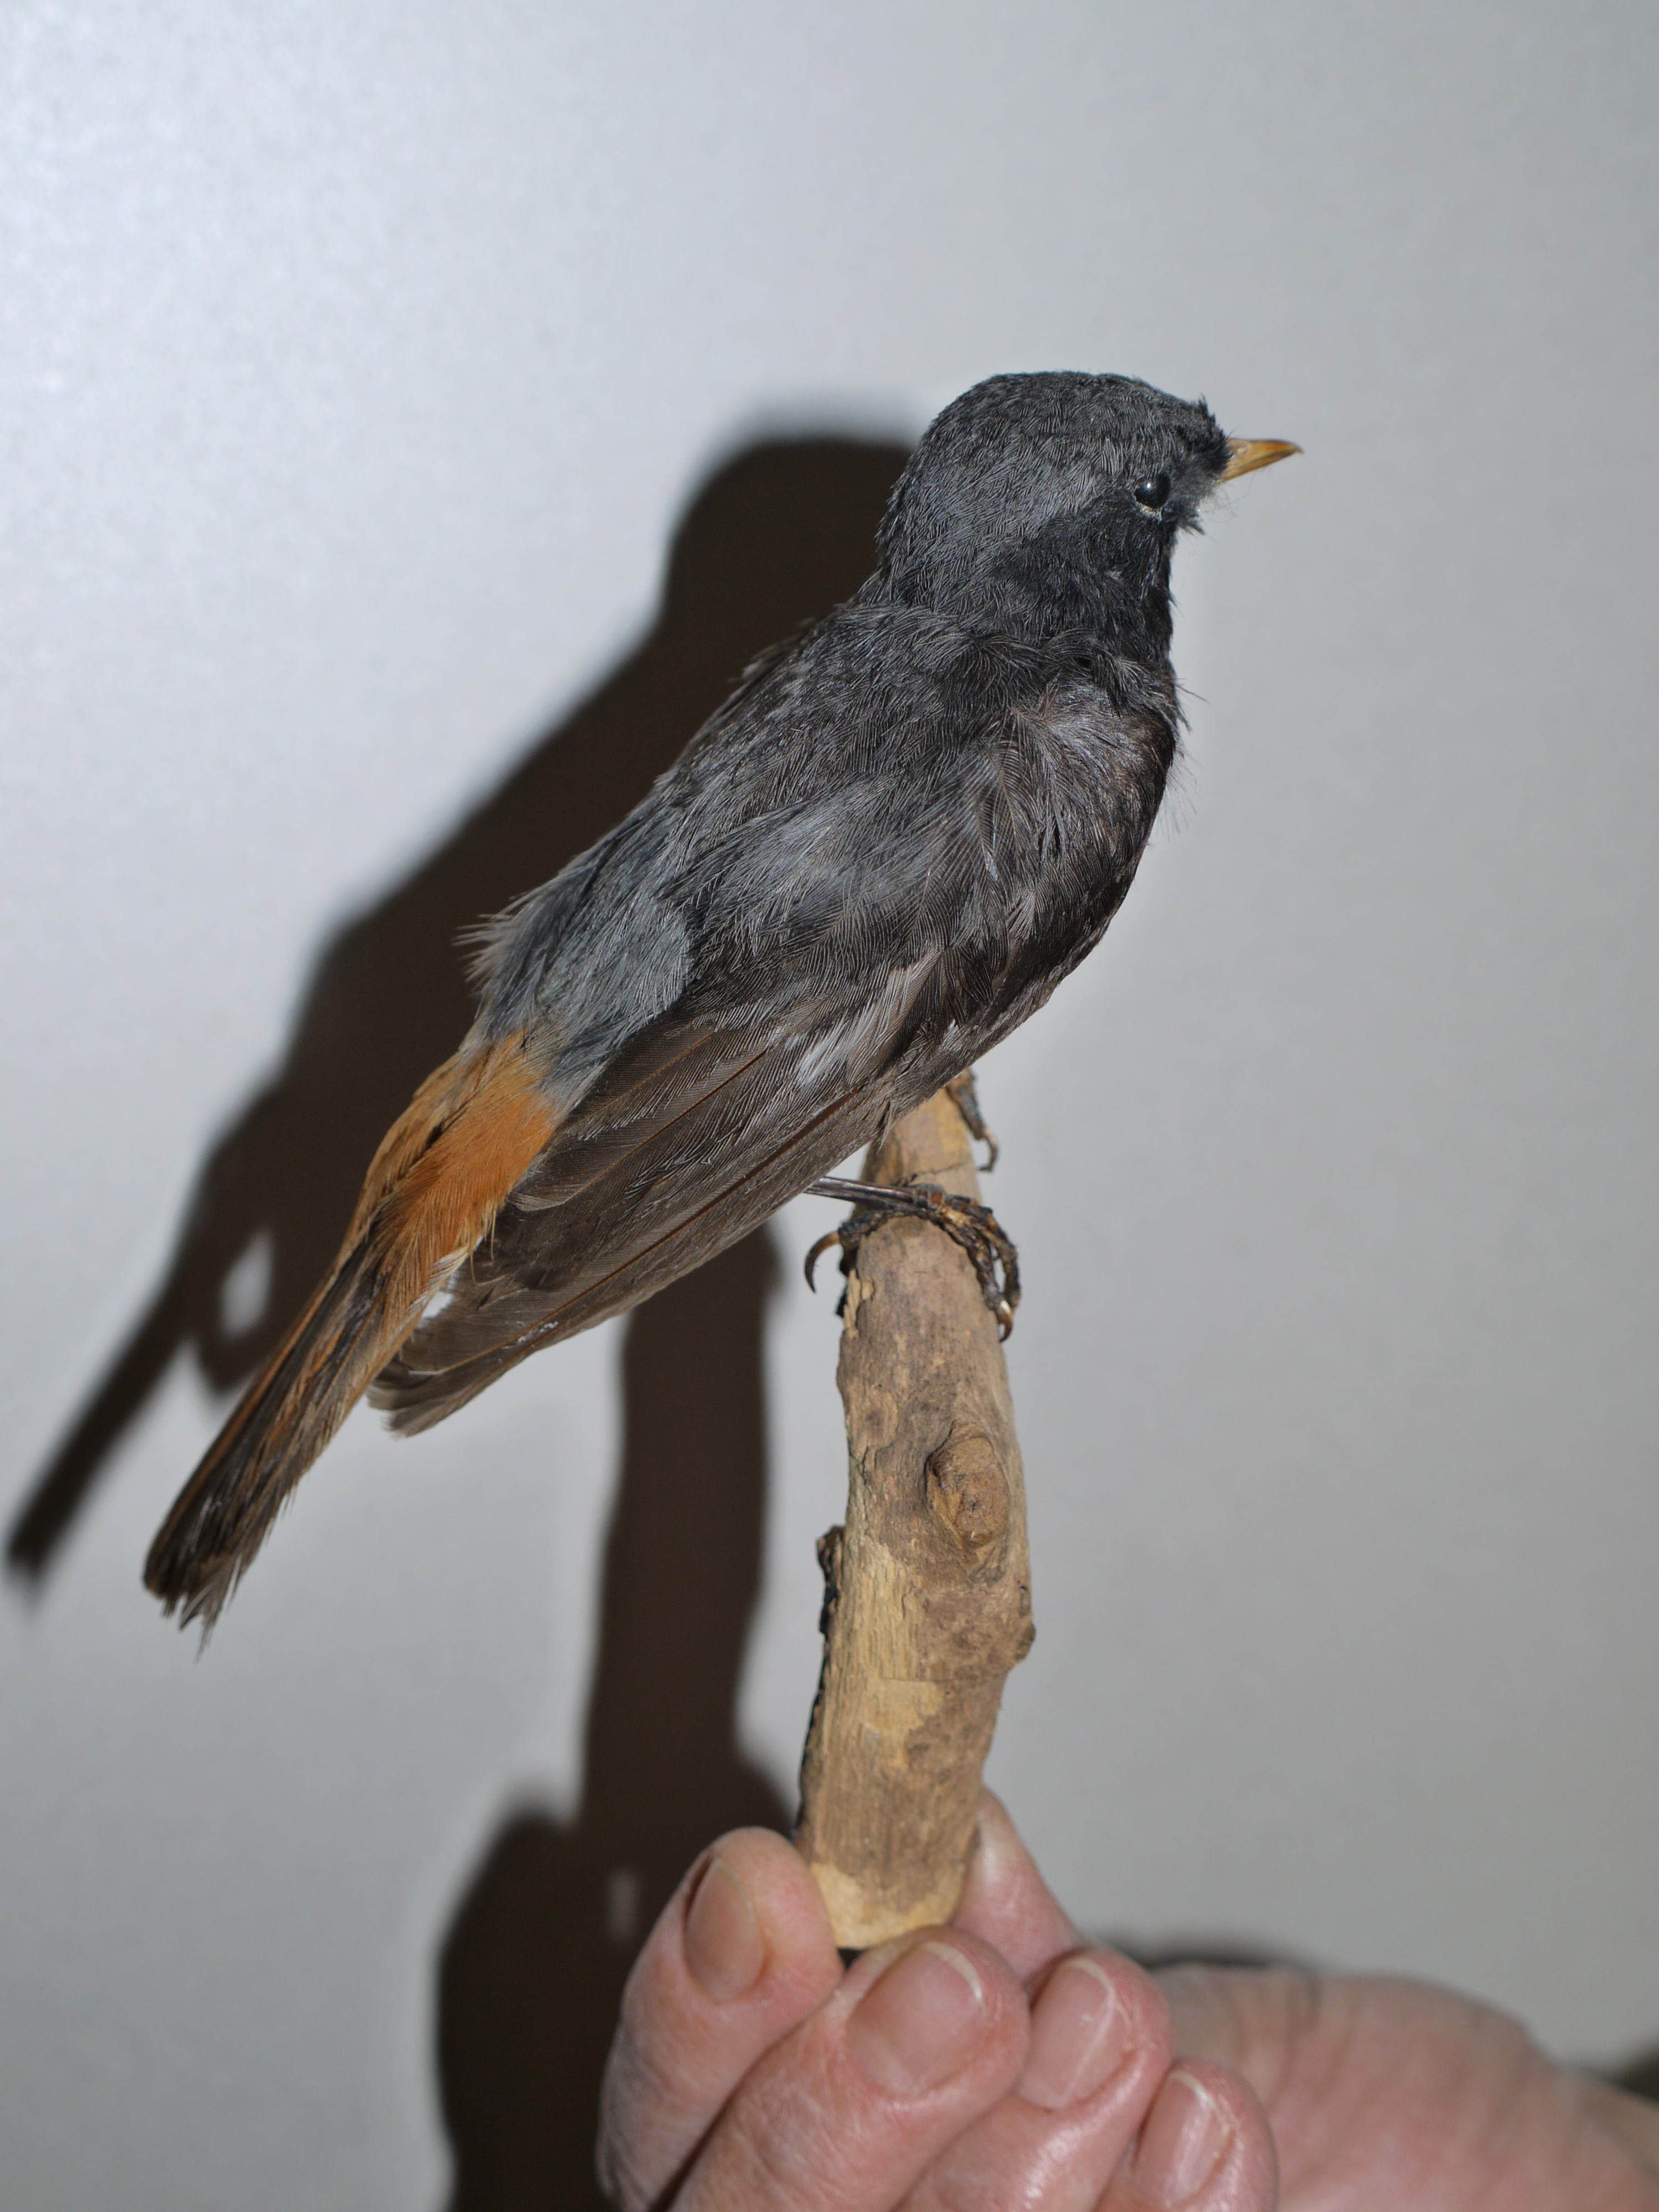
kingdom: Animalia
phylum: Chordata
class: Aves
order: Passeriformes
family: Muscicapidae
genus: Phoenicurus
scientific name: Phoenicurus ochruros
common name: Black redstart
